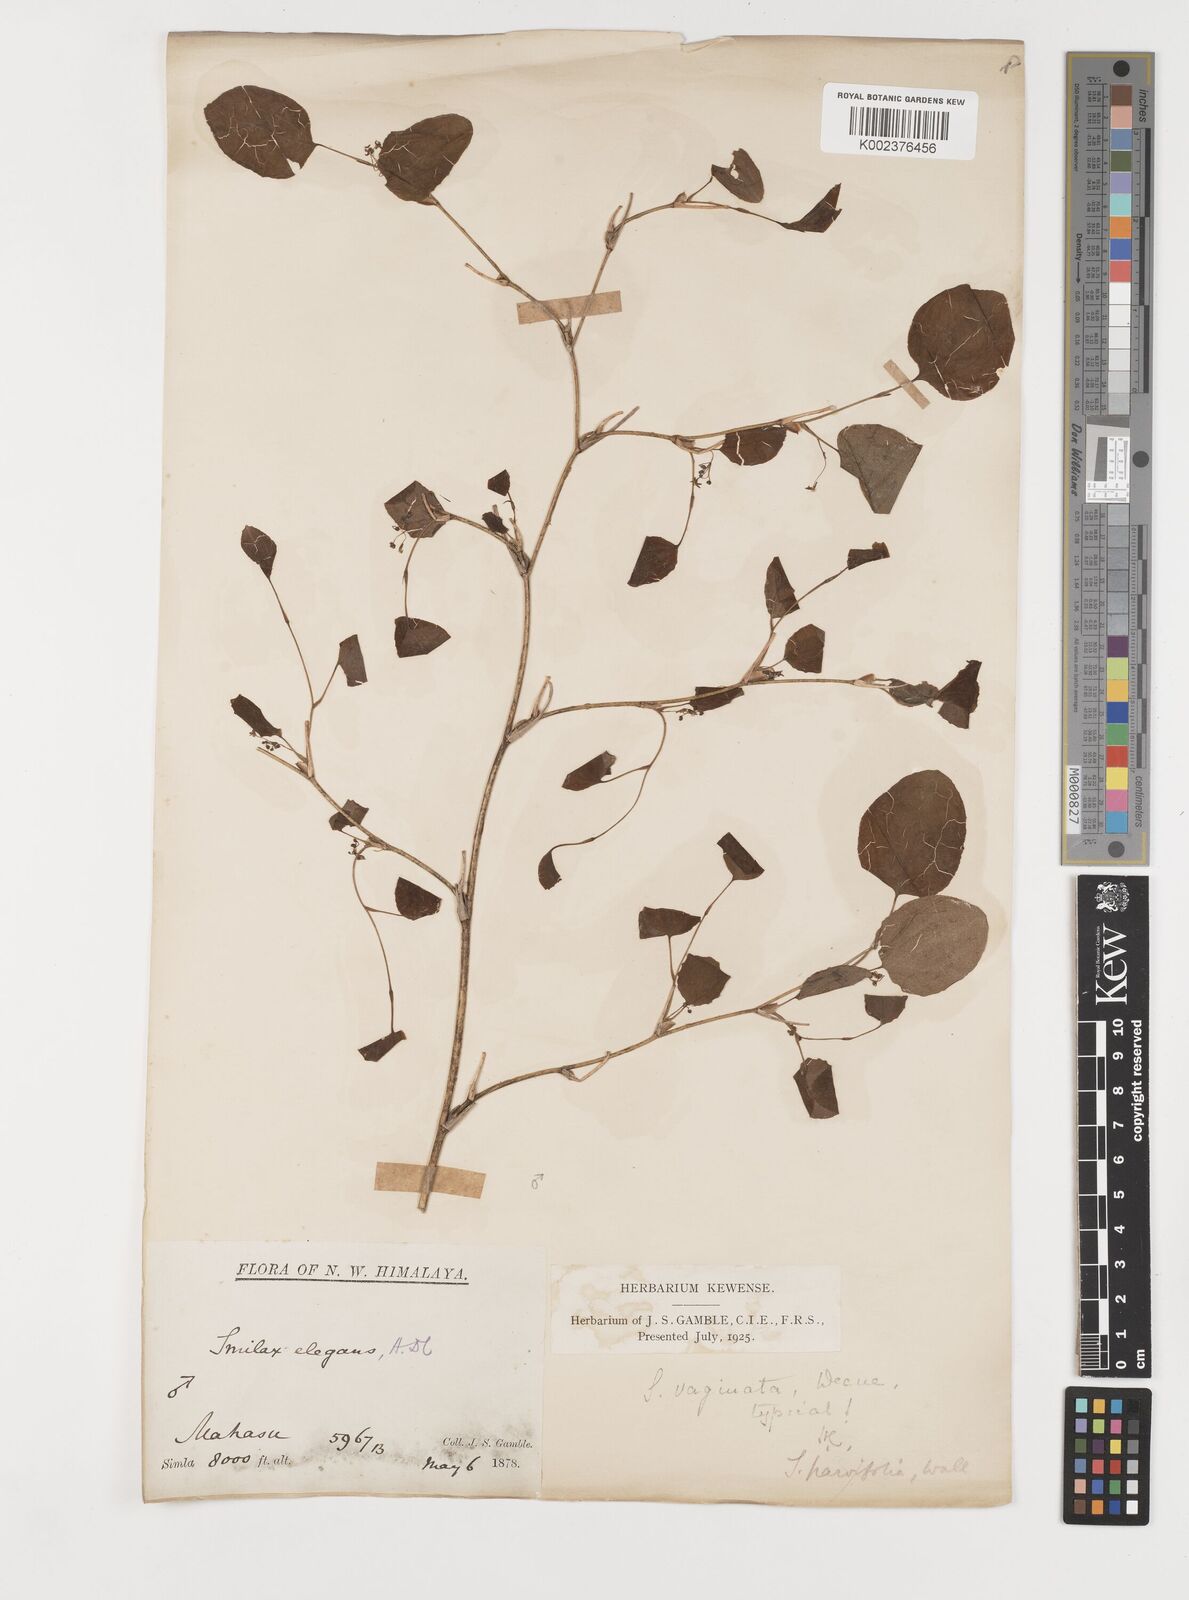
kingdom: Plantae
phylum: Tracheophyta
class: Liliopsida
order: Liliales
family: Smilacaceae
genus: Smilax
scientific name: Smilax vaginata
